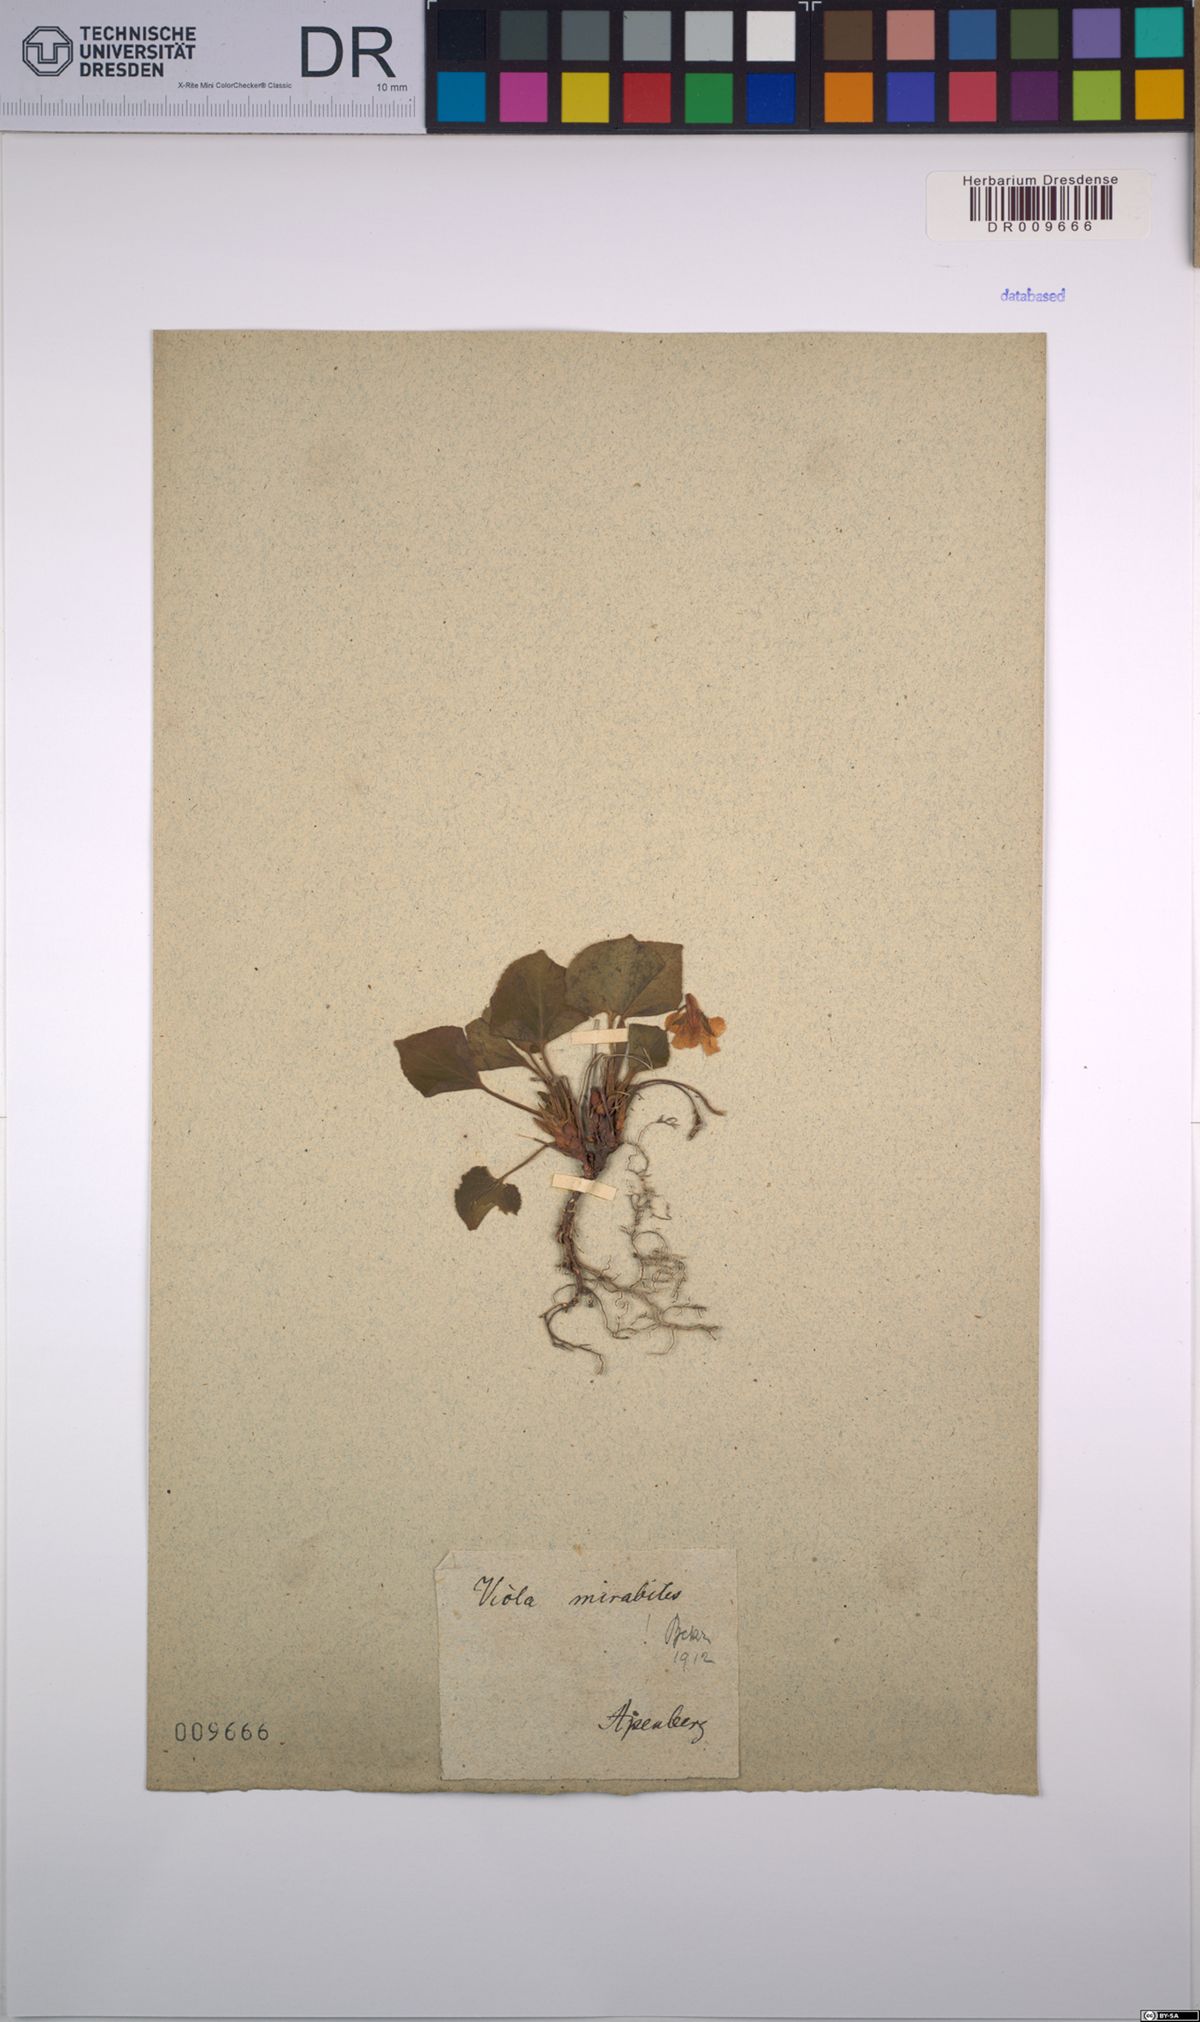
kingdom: Plantae
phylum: Tracheophyta
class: Magnoliopsida
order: Malpighiales
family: Violaceae
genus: Viola
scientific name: Viola mirabilis
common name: Wonder violet
